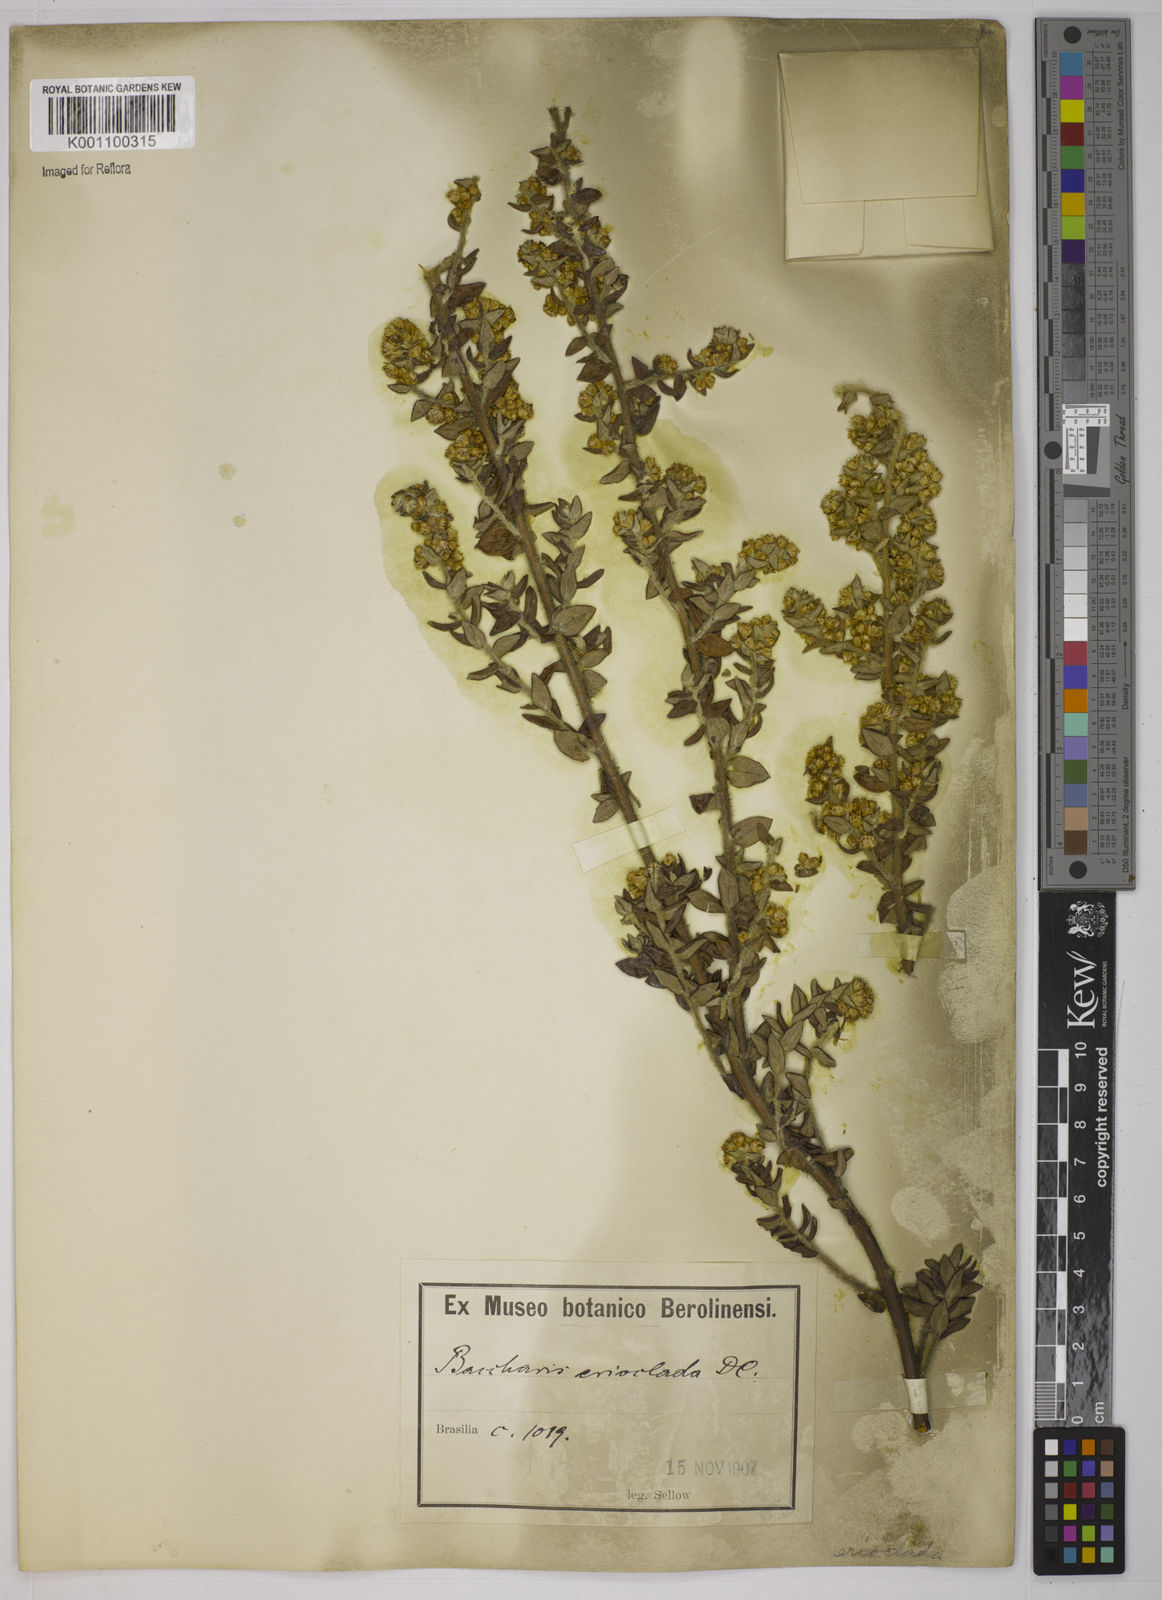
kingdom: Plantae
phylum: Tracheophyta
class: Magnoliopsida
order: Asterales
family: Asteraceae
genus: Baccharis
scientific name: Baccharis erioclada
